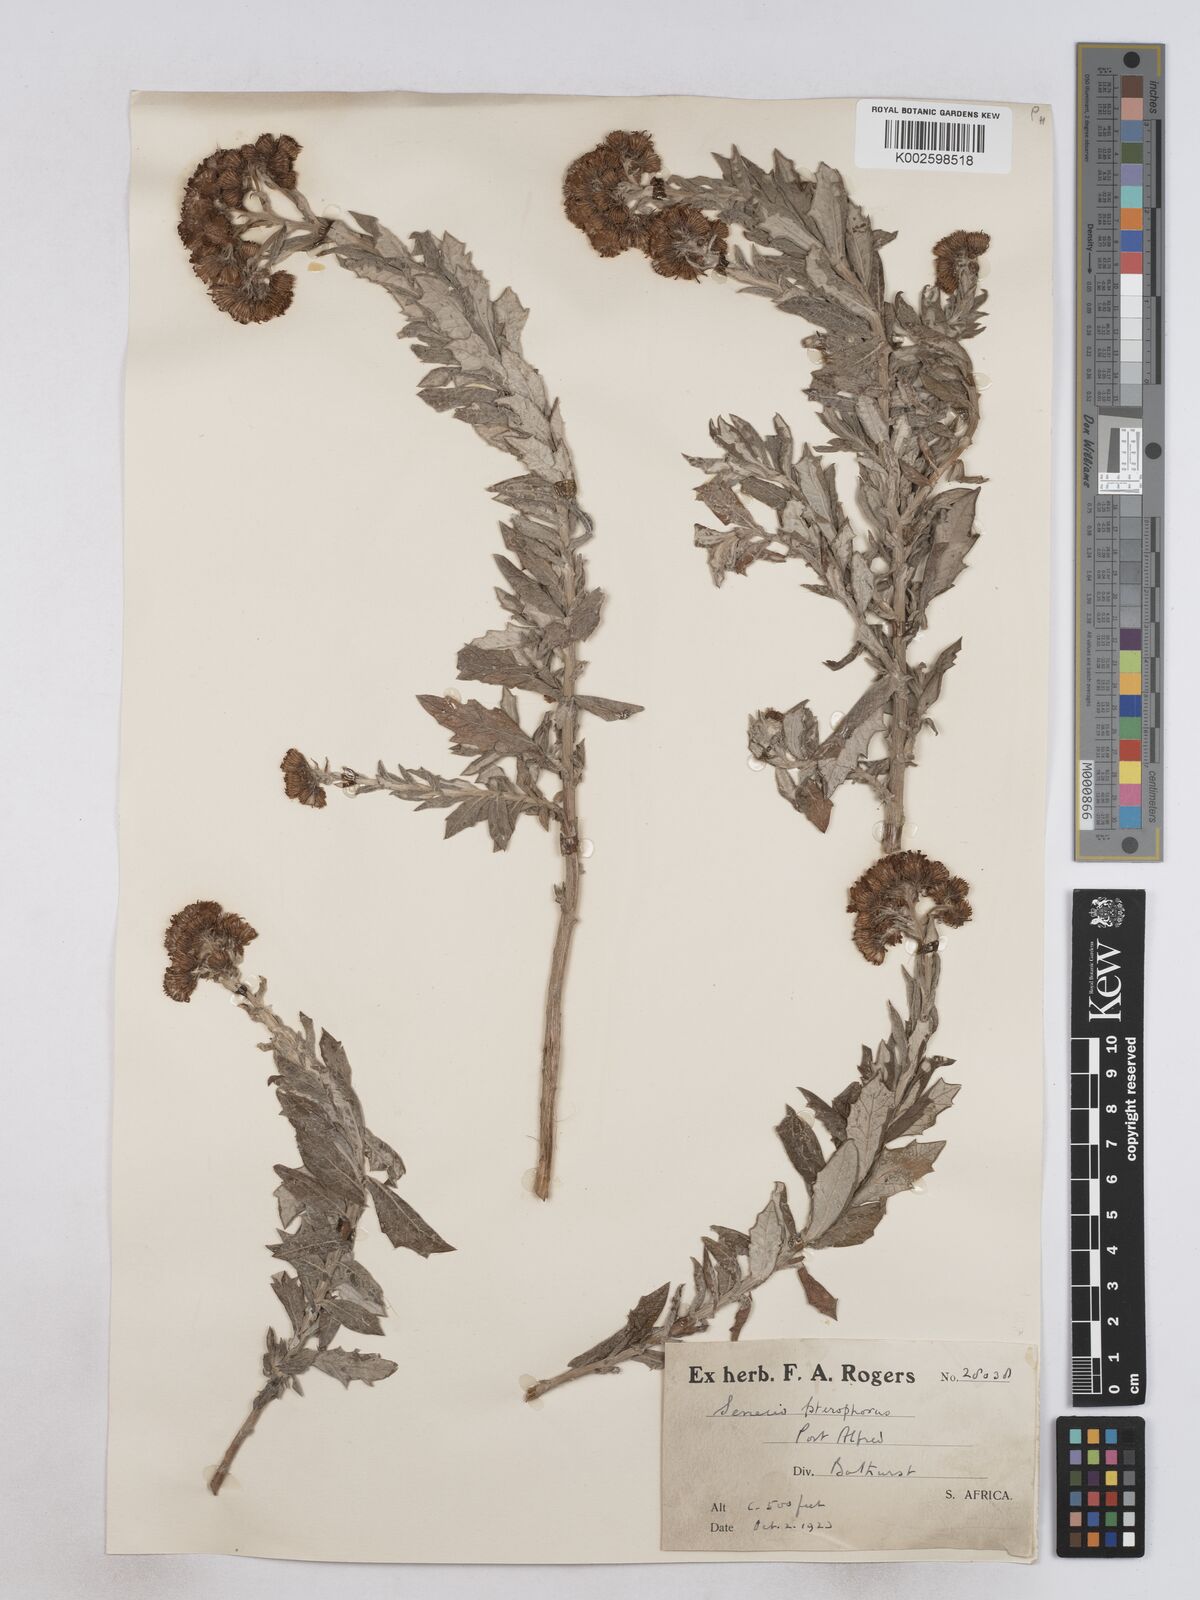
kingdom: Plantae
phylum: Tracheophyta
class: Magnoliopsida
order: Asterales
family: Asteraceae
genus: Senecio
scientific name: Senecio ilicifolius
